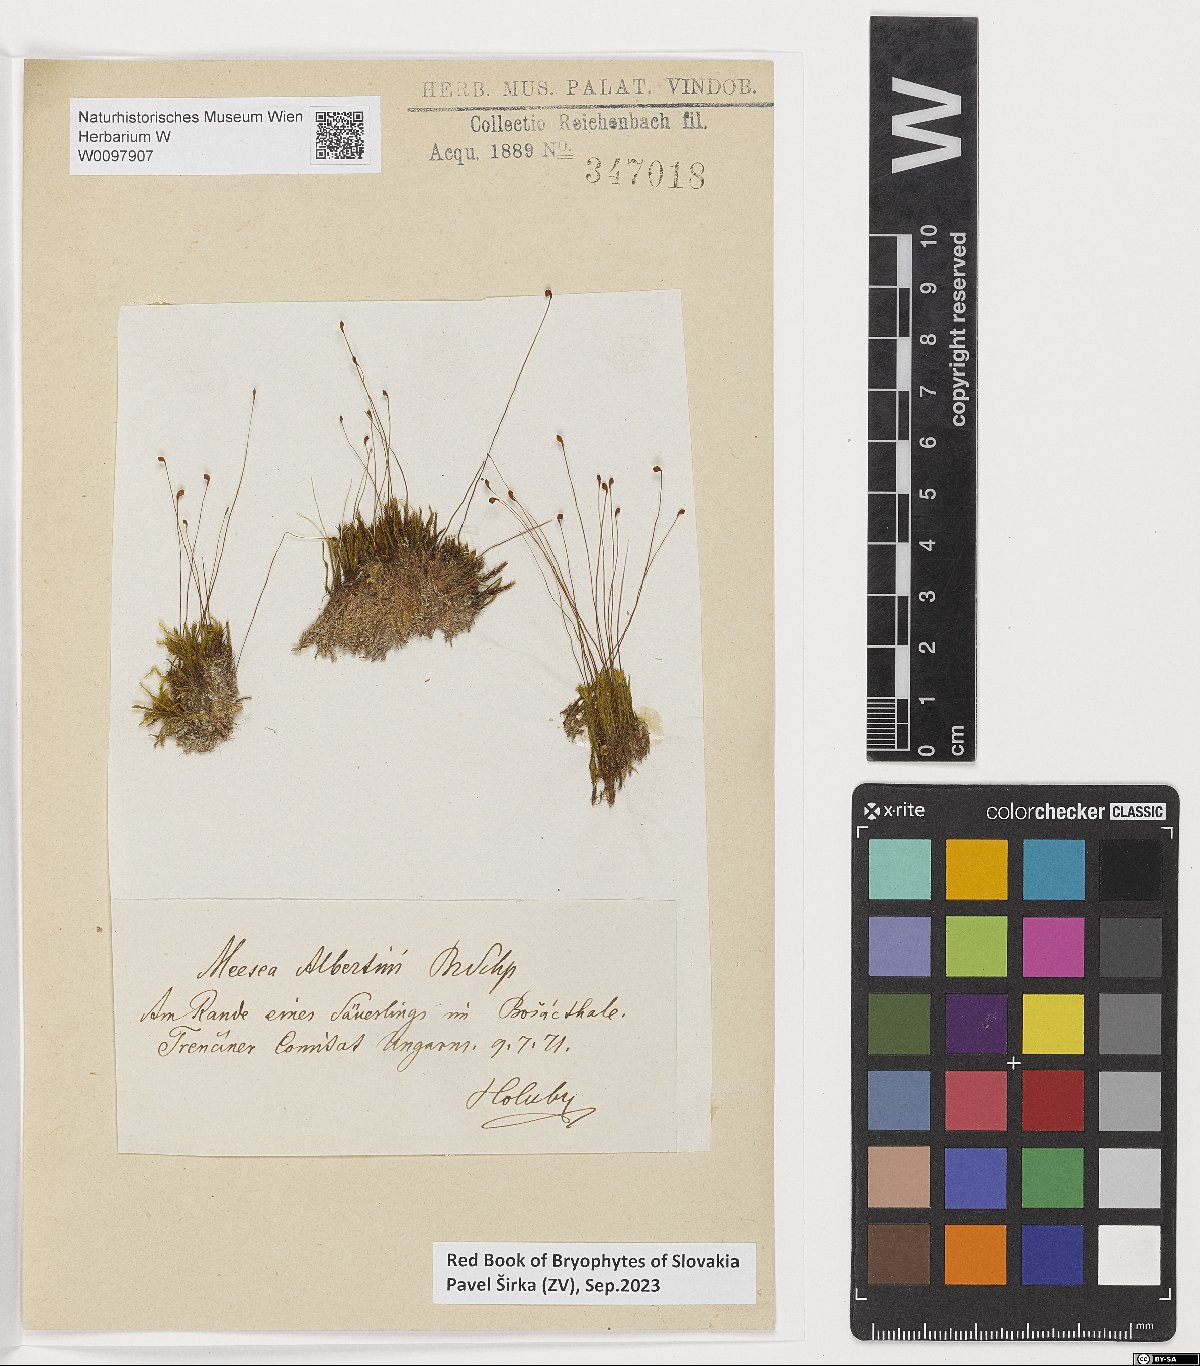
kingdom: Plantae
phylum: Bryophyta
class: Bryopsida
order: Splachnales
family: Meesiaceae
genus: Meesia
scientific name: Meesia hexasticha
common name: Triangular-leaved thread moss
